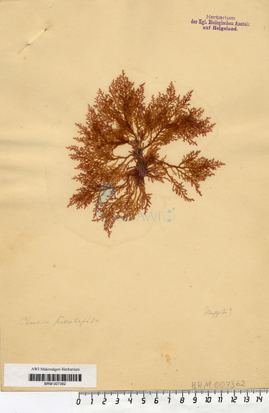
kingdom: Plantae
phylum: Rhodophyta
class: Florideophyceae
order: Ceramiales
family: Rhodomelaceae
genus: Laurencia
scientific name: Laurencia Osmundea pinnatifida
